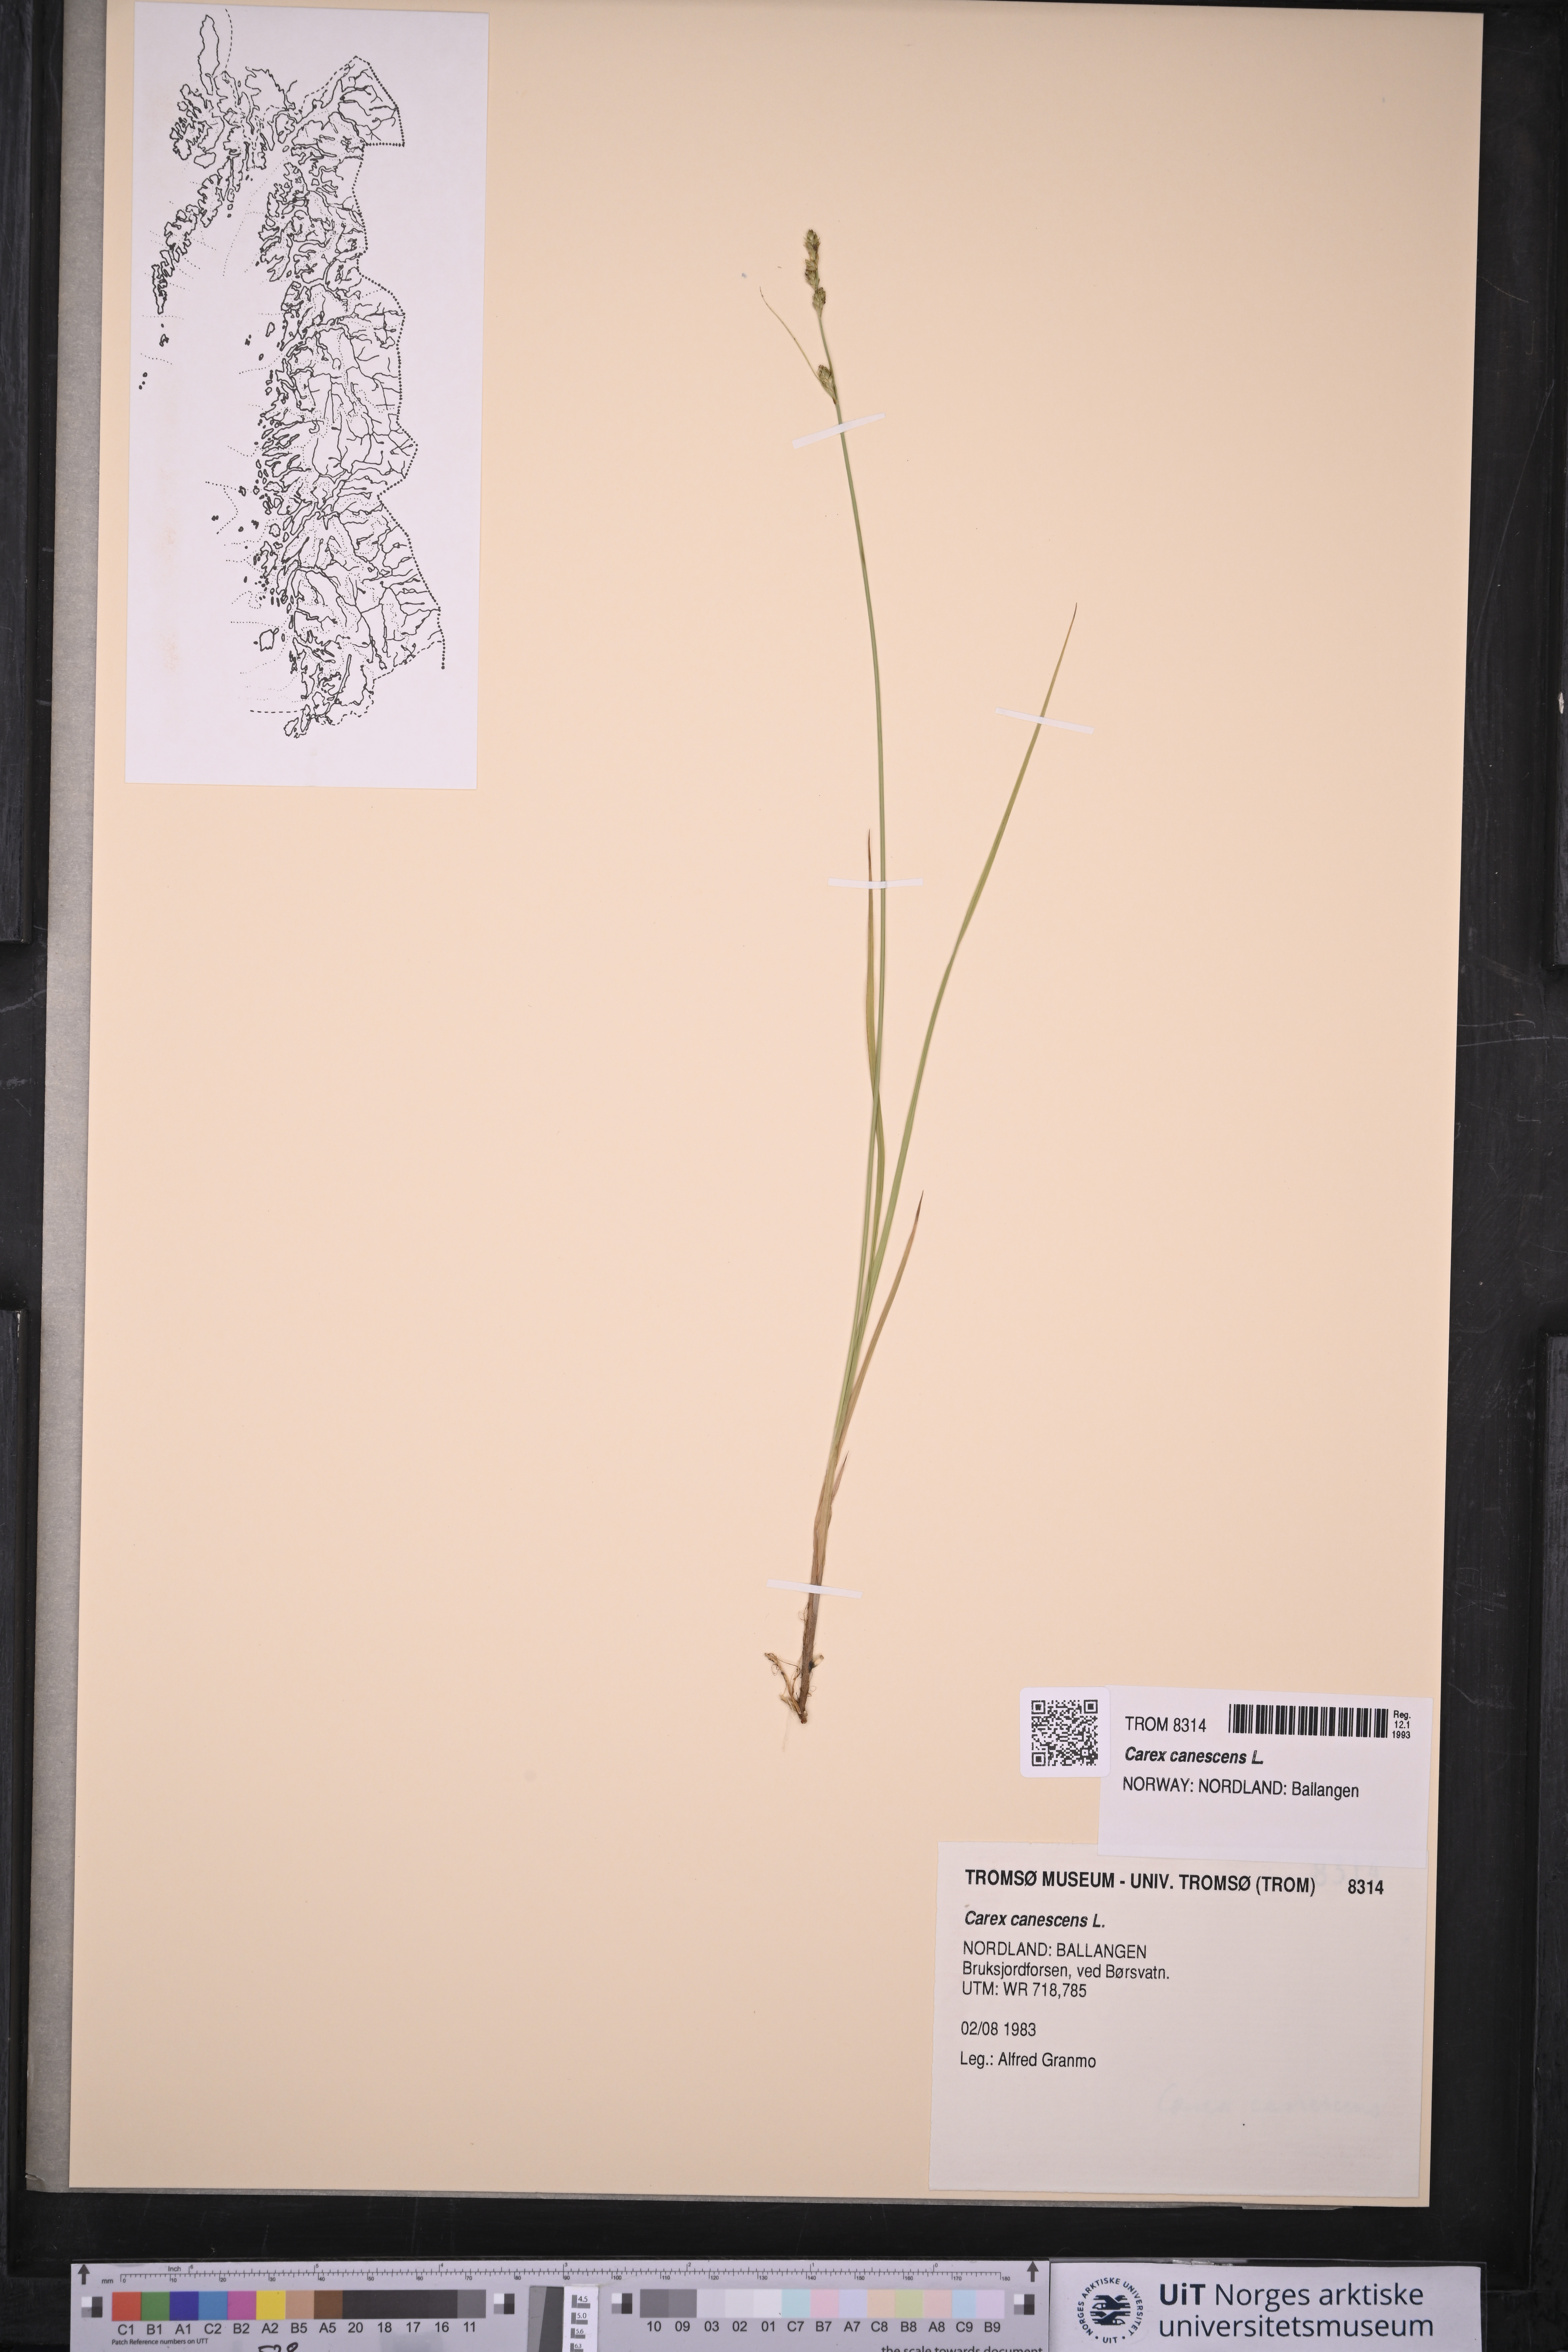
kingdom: Plantae
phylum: Tracheophyta
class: Liliopsida
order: Poales
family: Cyperaceae
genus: Carex
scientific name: Carex canescens
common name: White sedge
